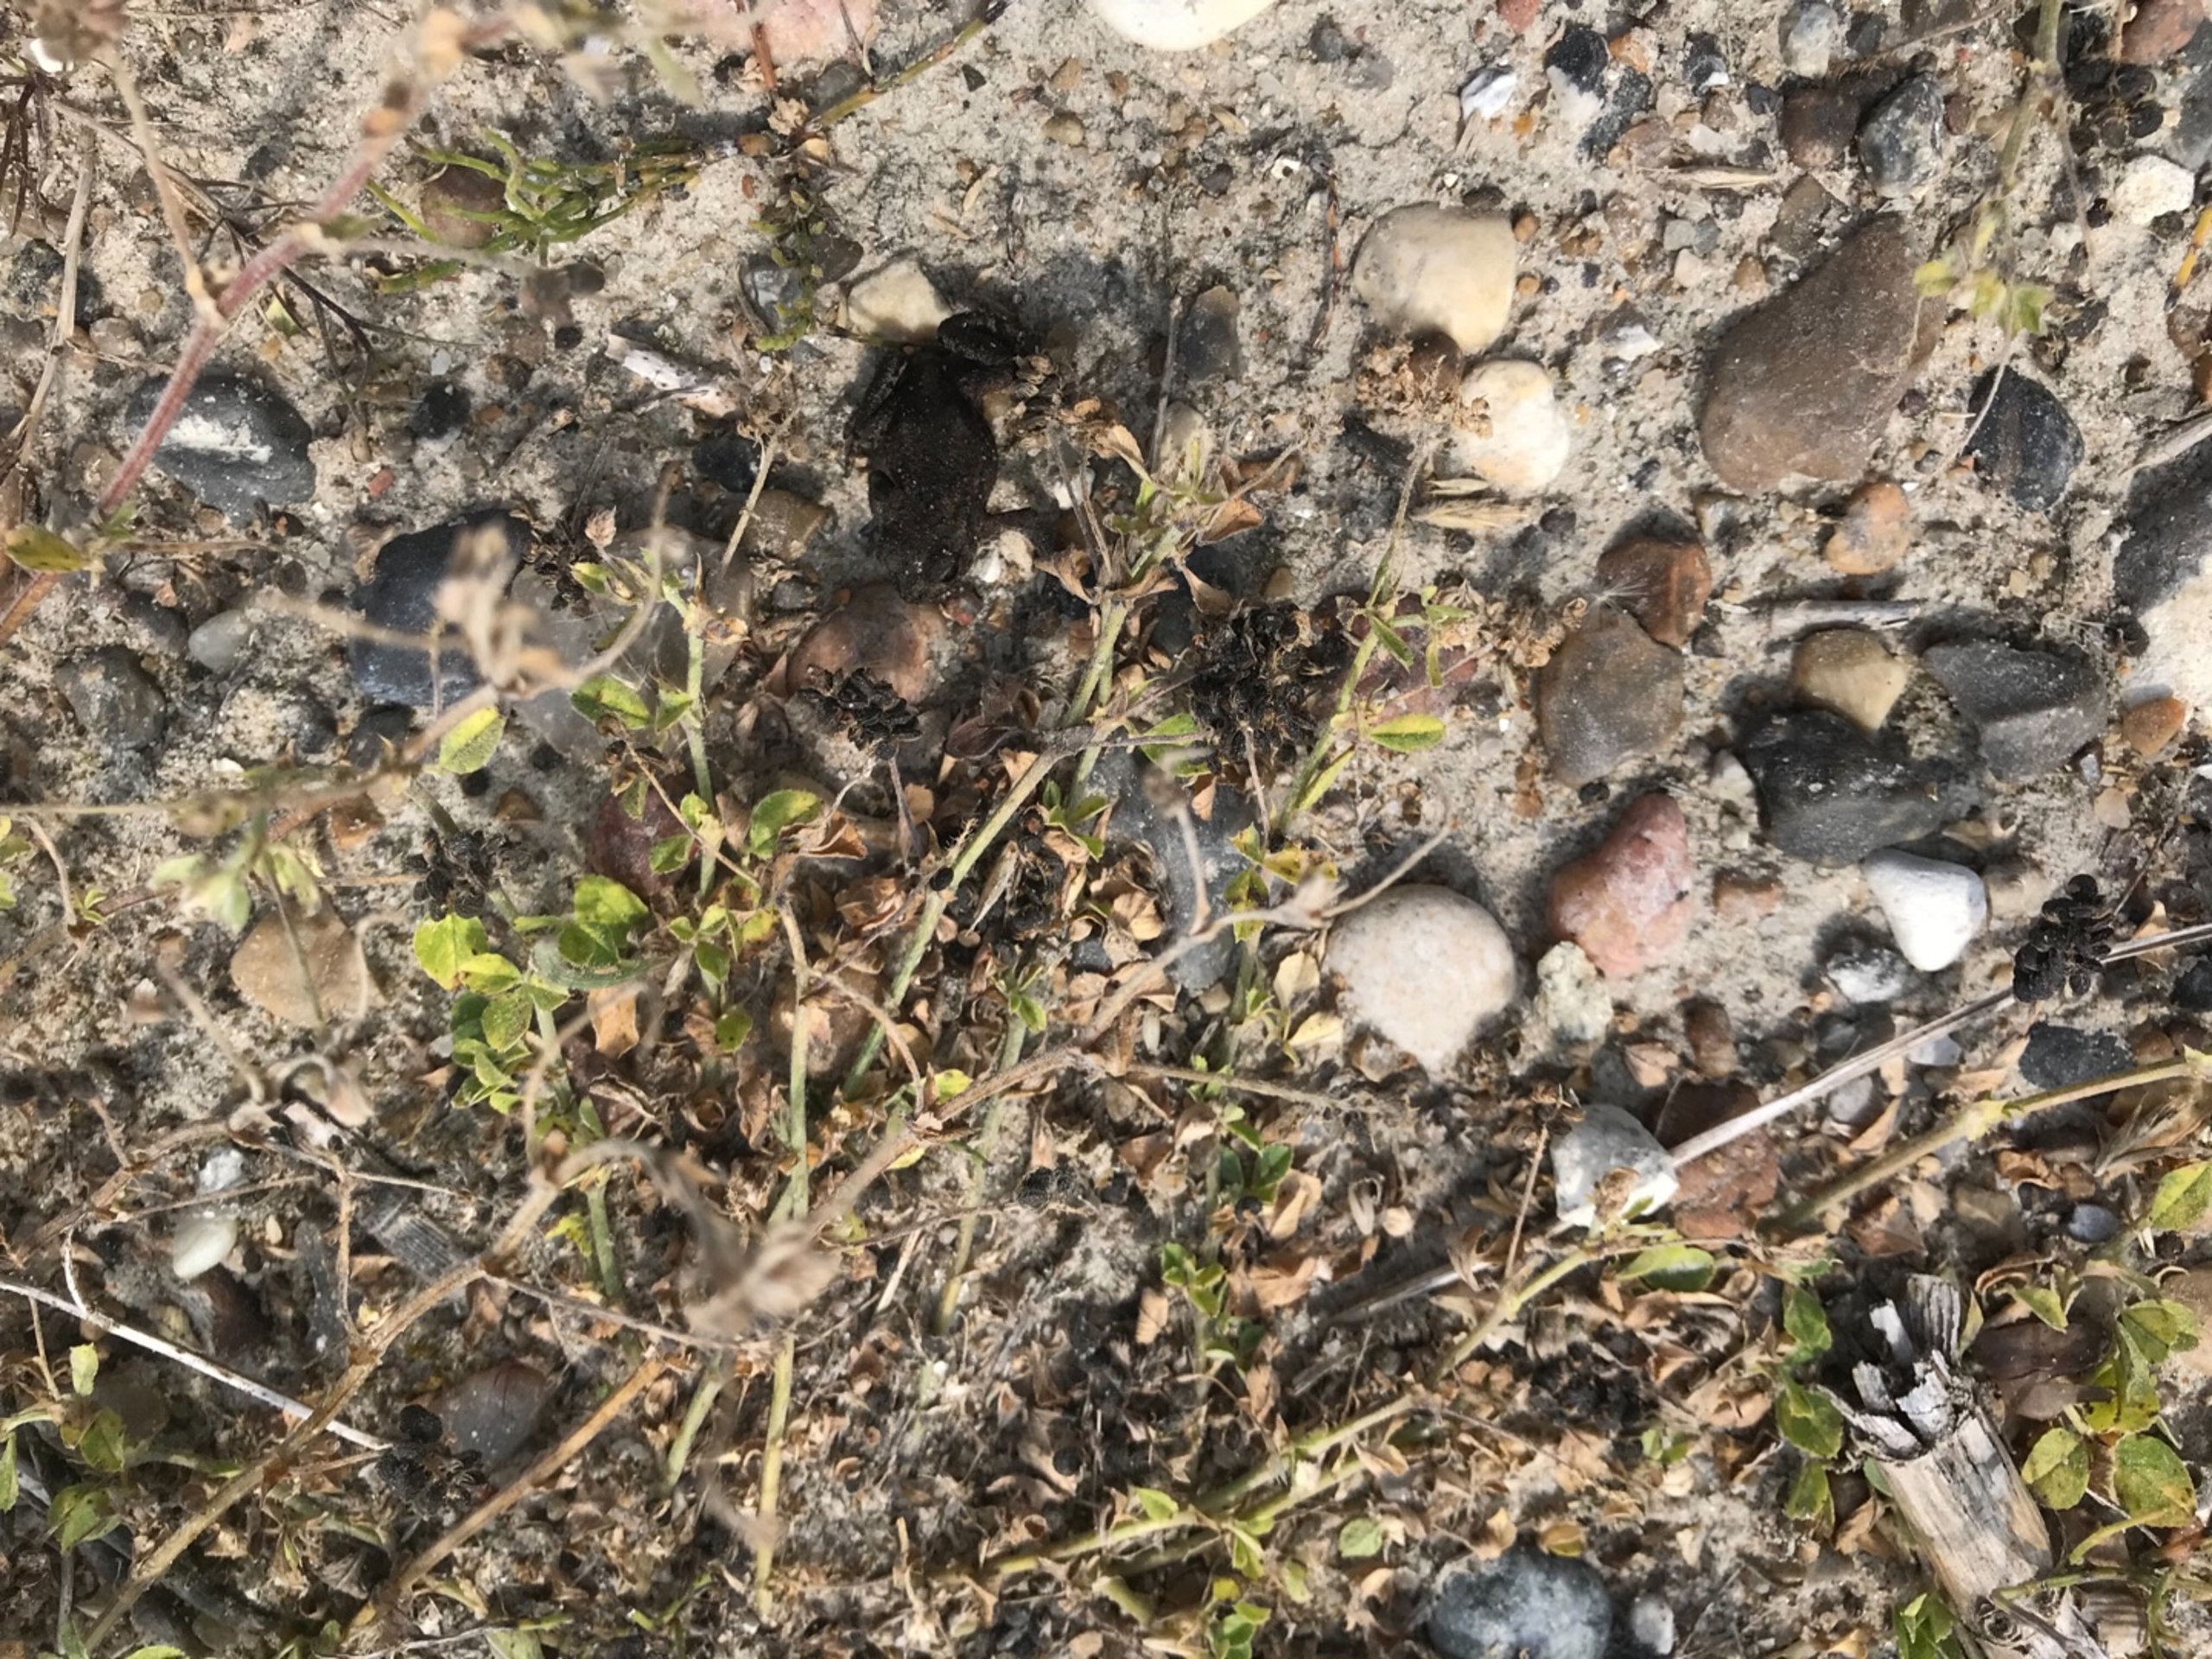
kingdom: Animalia
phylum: Chordata
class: Amphibia
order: Anura
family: Bufonidae
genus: Bufo
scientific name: Bufo bufo
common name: Skrubtudse
